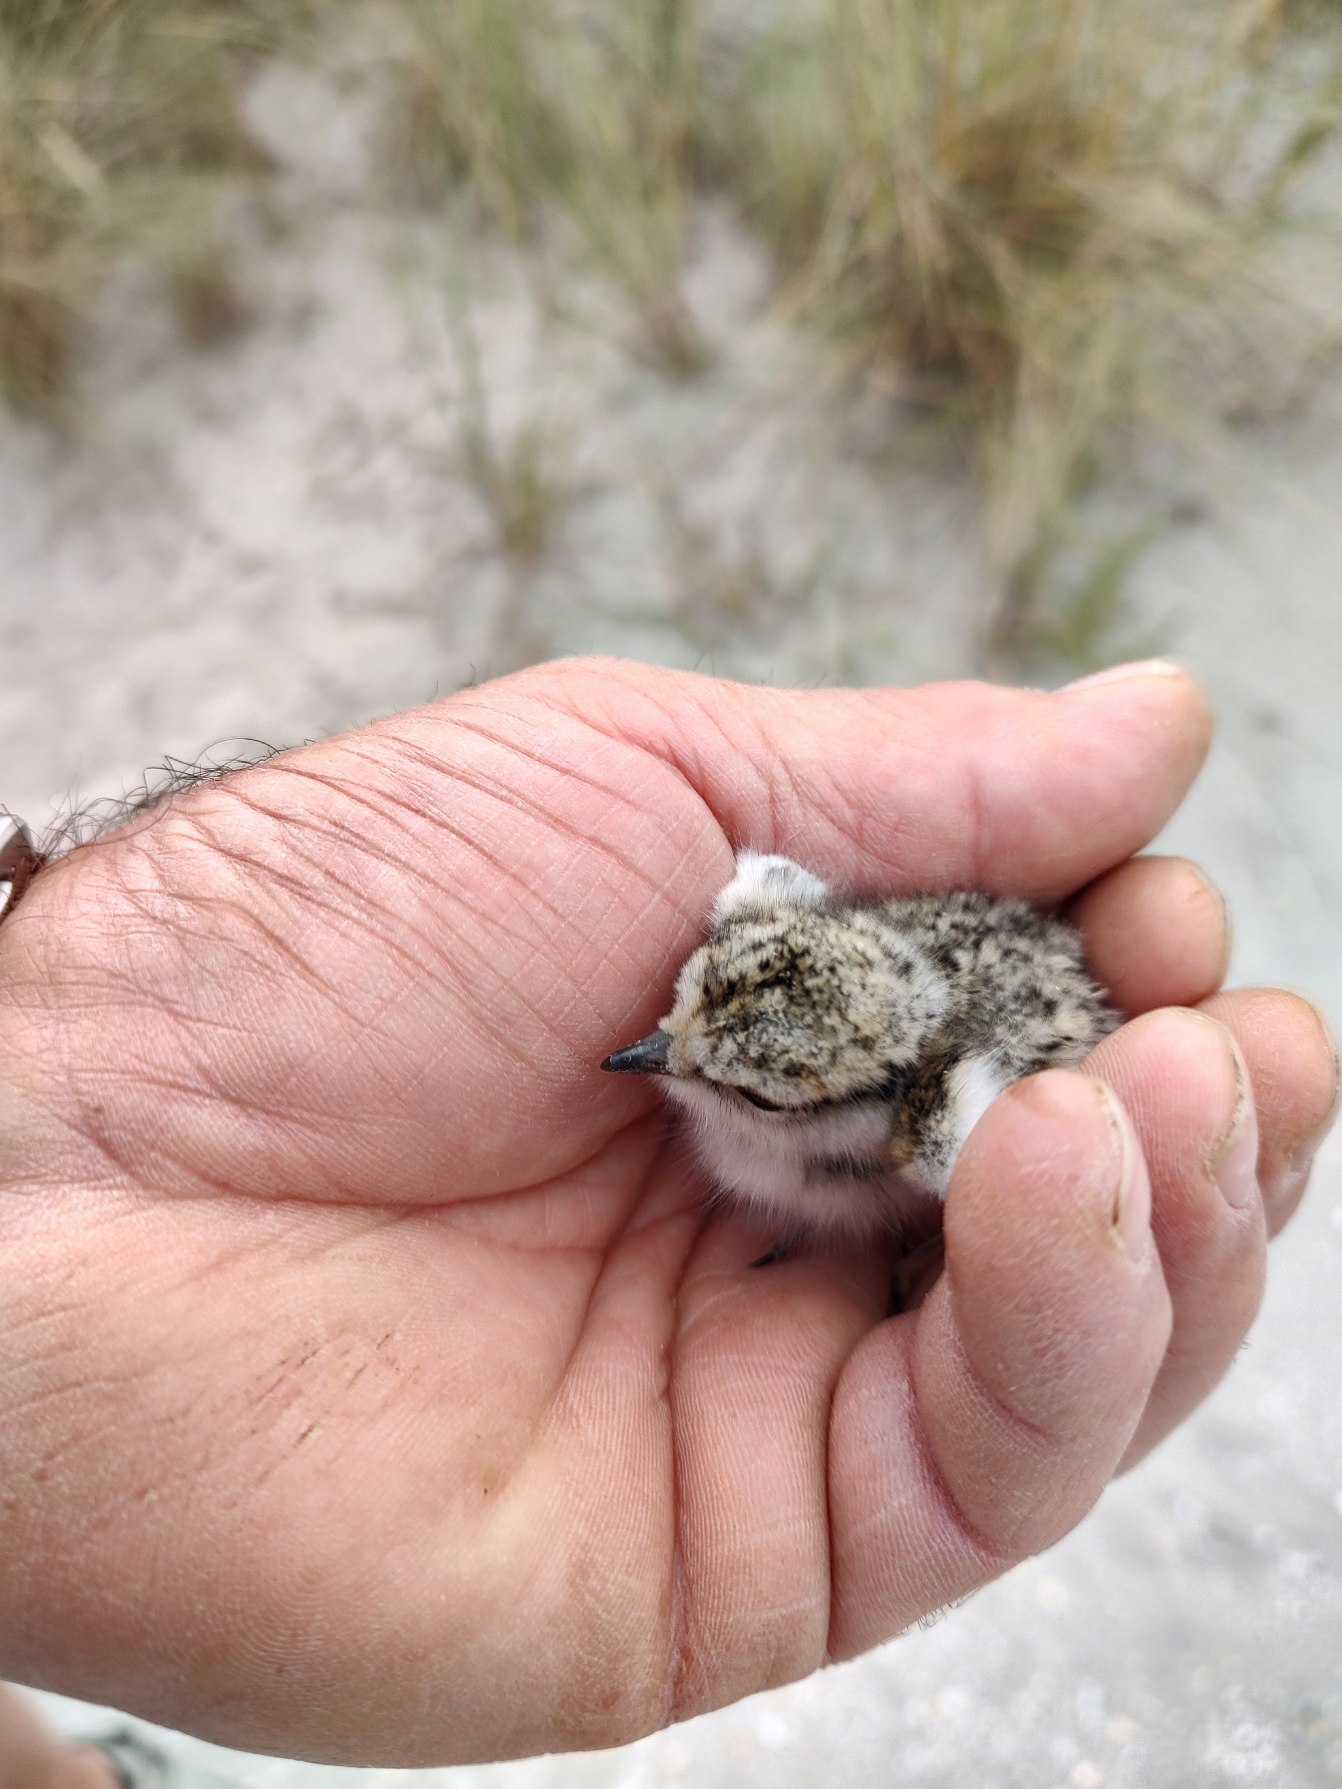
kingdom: Animalia
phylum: Chordata
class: Aves
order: Charadriiformes
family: Charadriidae
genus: Charadrius
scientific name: Charadrius hiaticula
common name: Stor præstekrave
